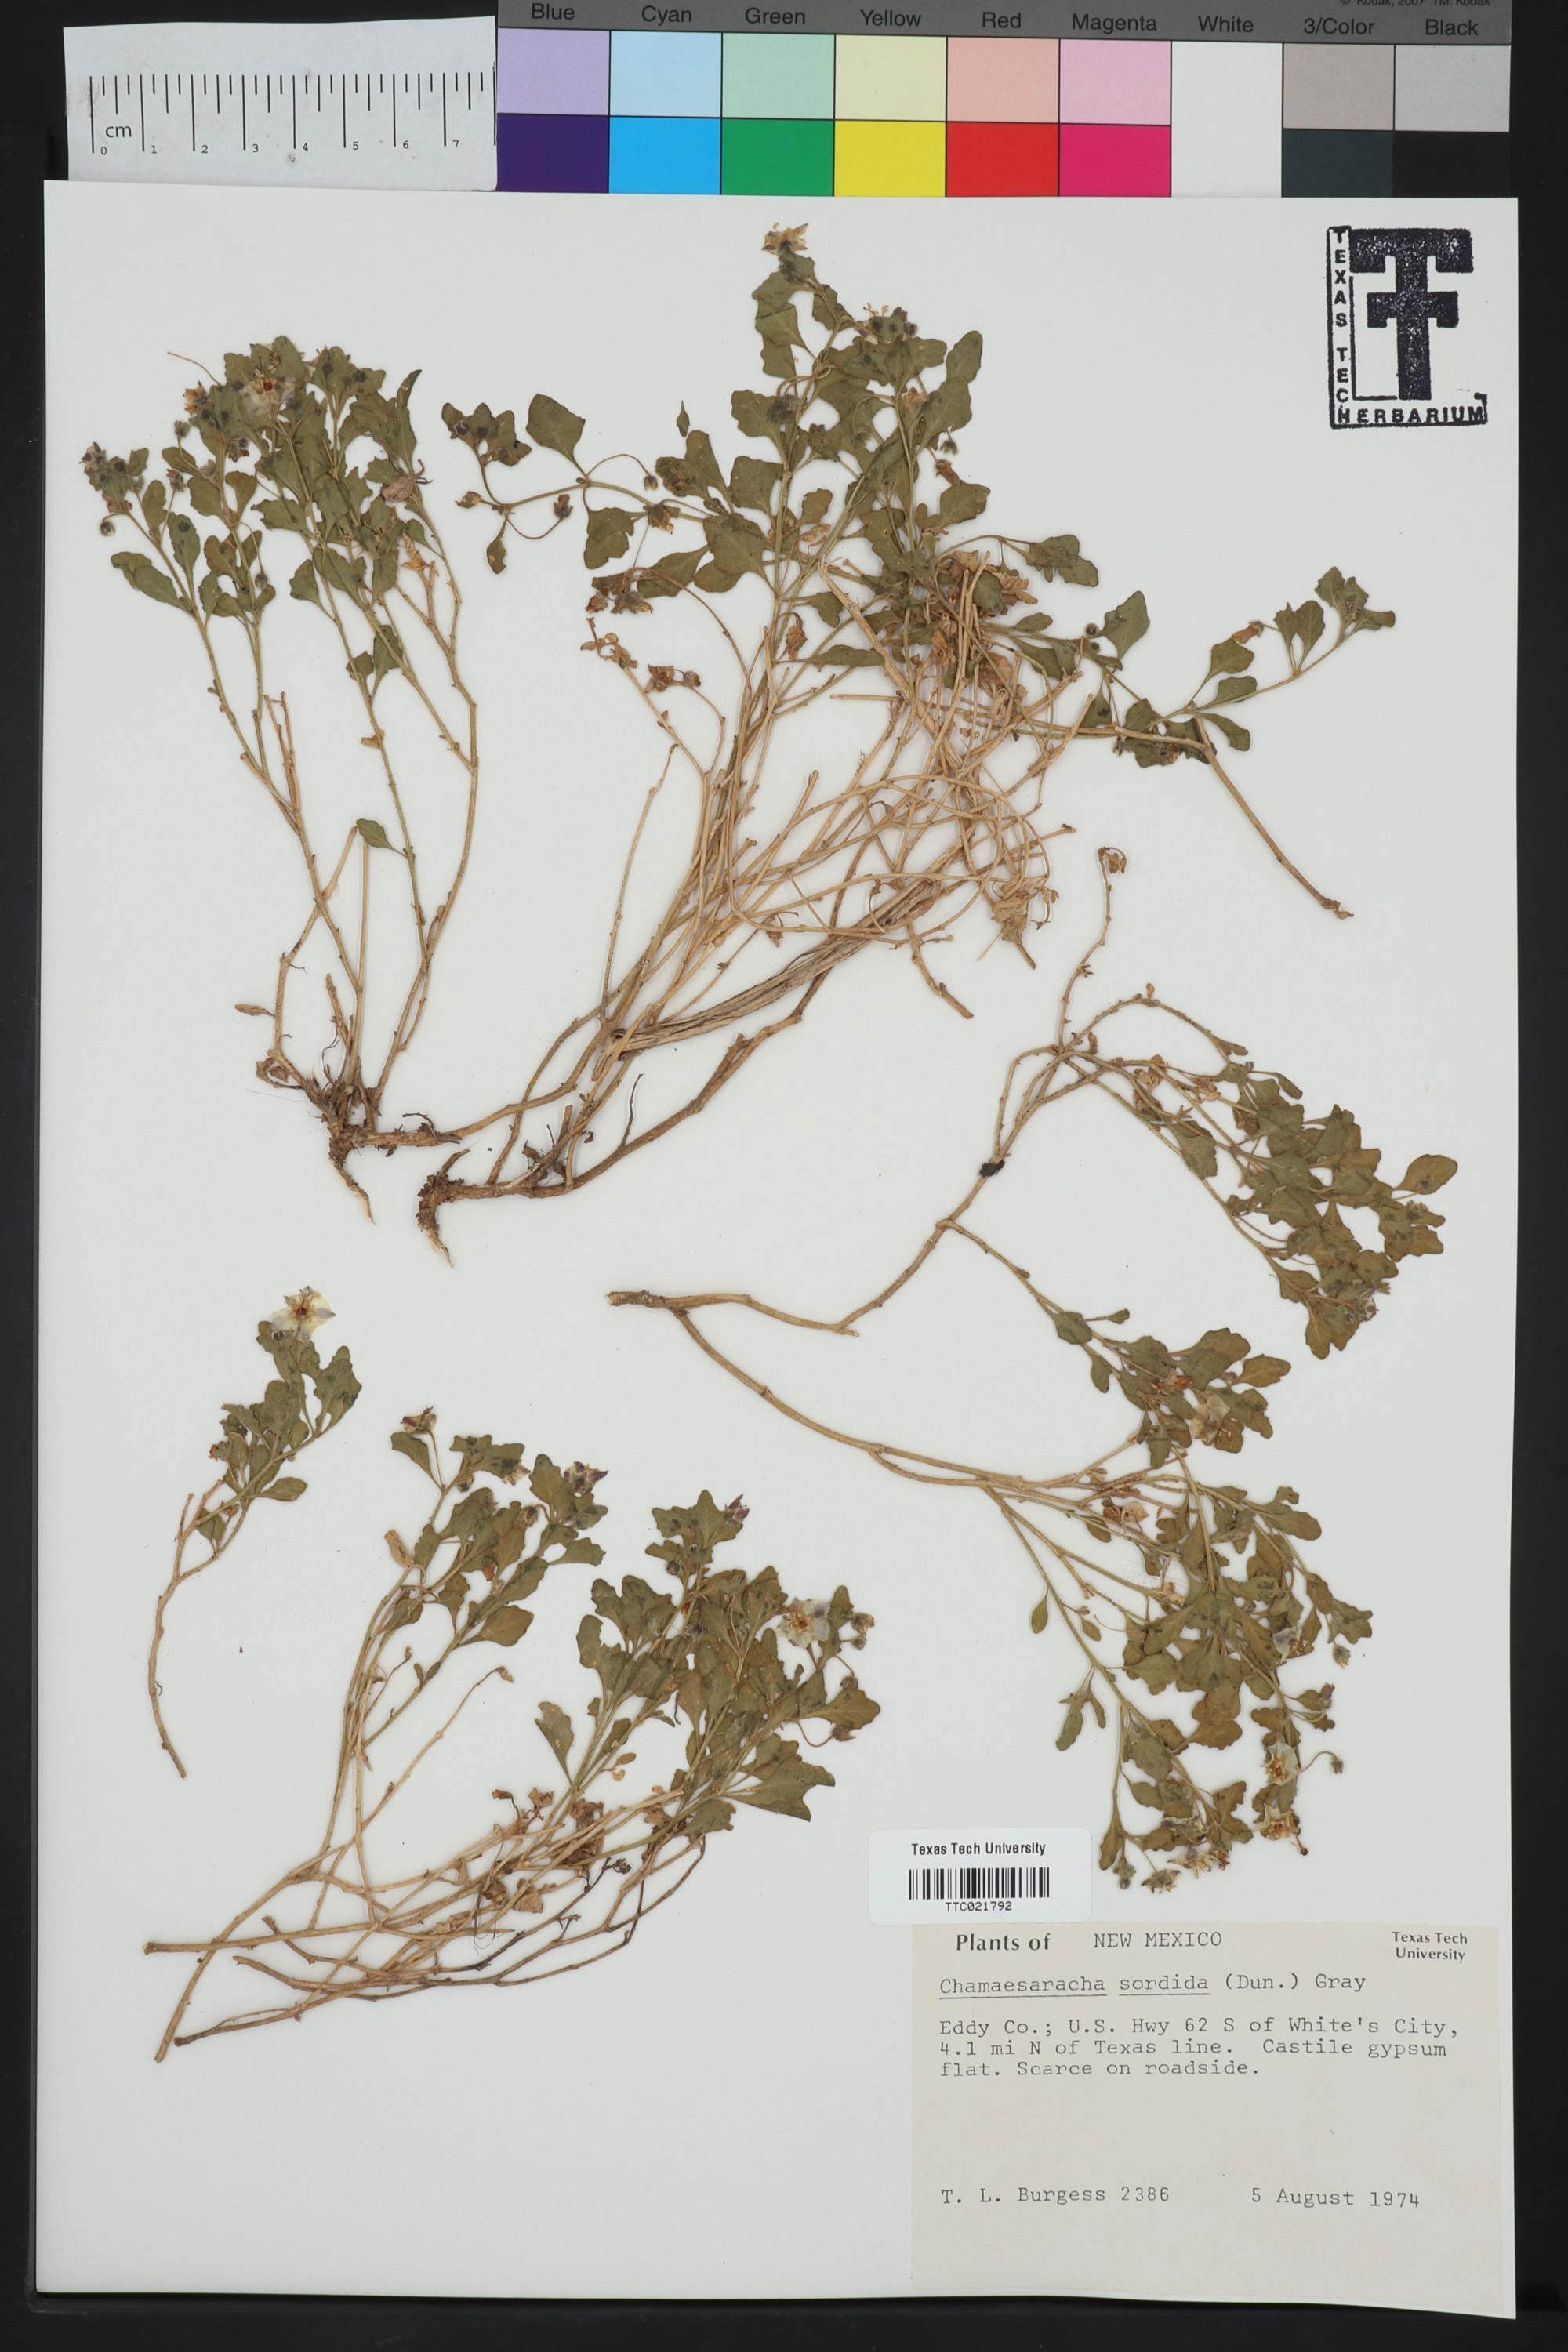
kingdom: Plantae
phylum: Tracheophyta
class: Magnoliopsida
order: Solanales
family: Solanaceae
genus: Chamaesaracha
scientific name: Chamaesaracha sordida
